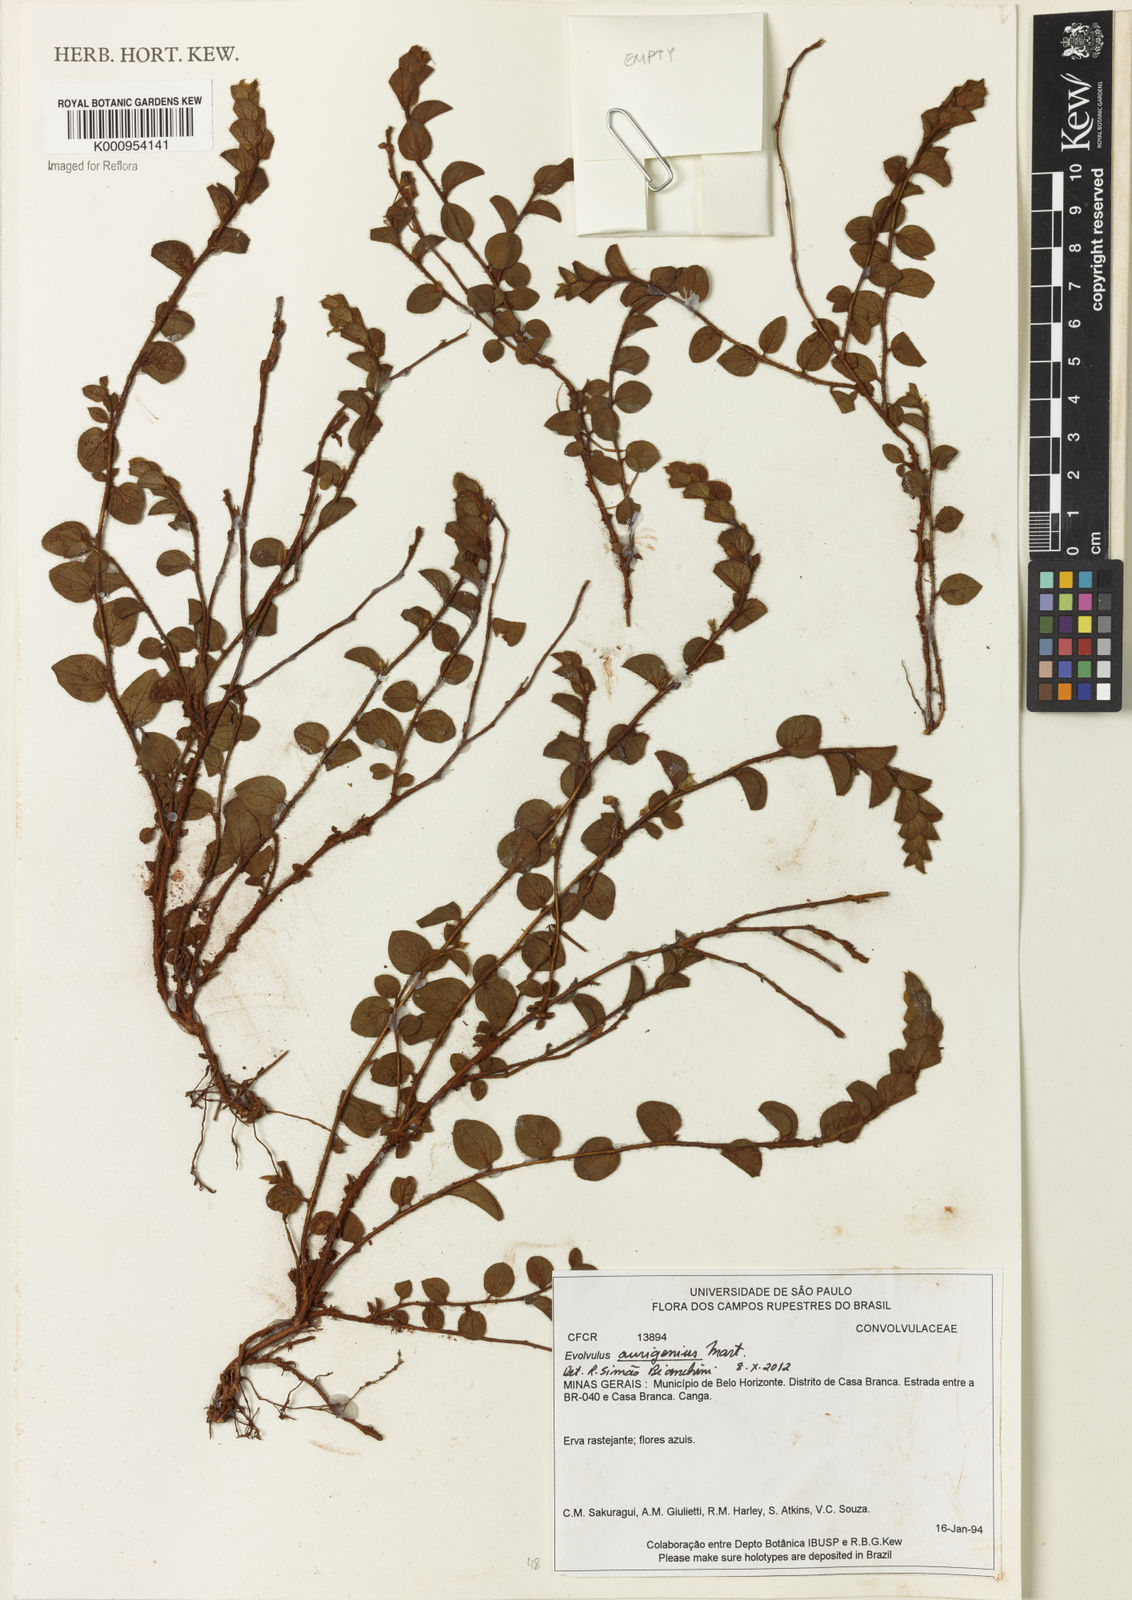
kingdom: Plantae
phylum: Tracheophyta
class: Magnoliopsida
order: Solanales
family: Convolvulaceae
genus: Evolvulus
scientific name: Evolvulus aurigenius
